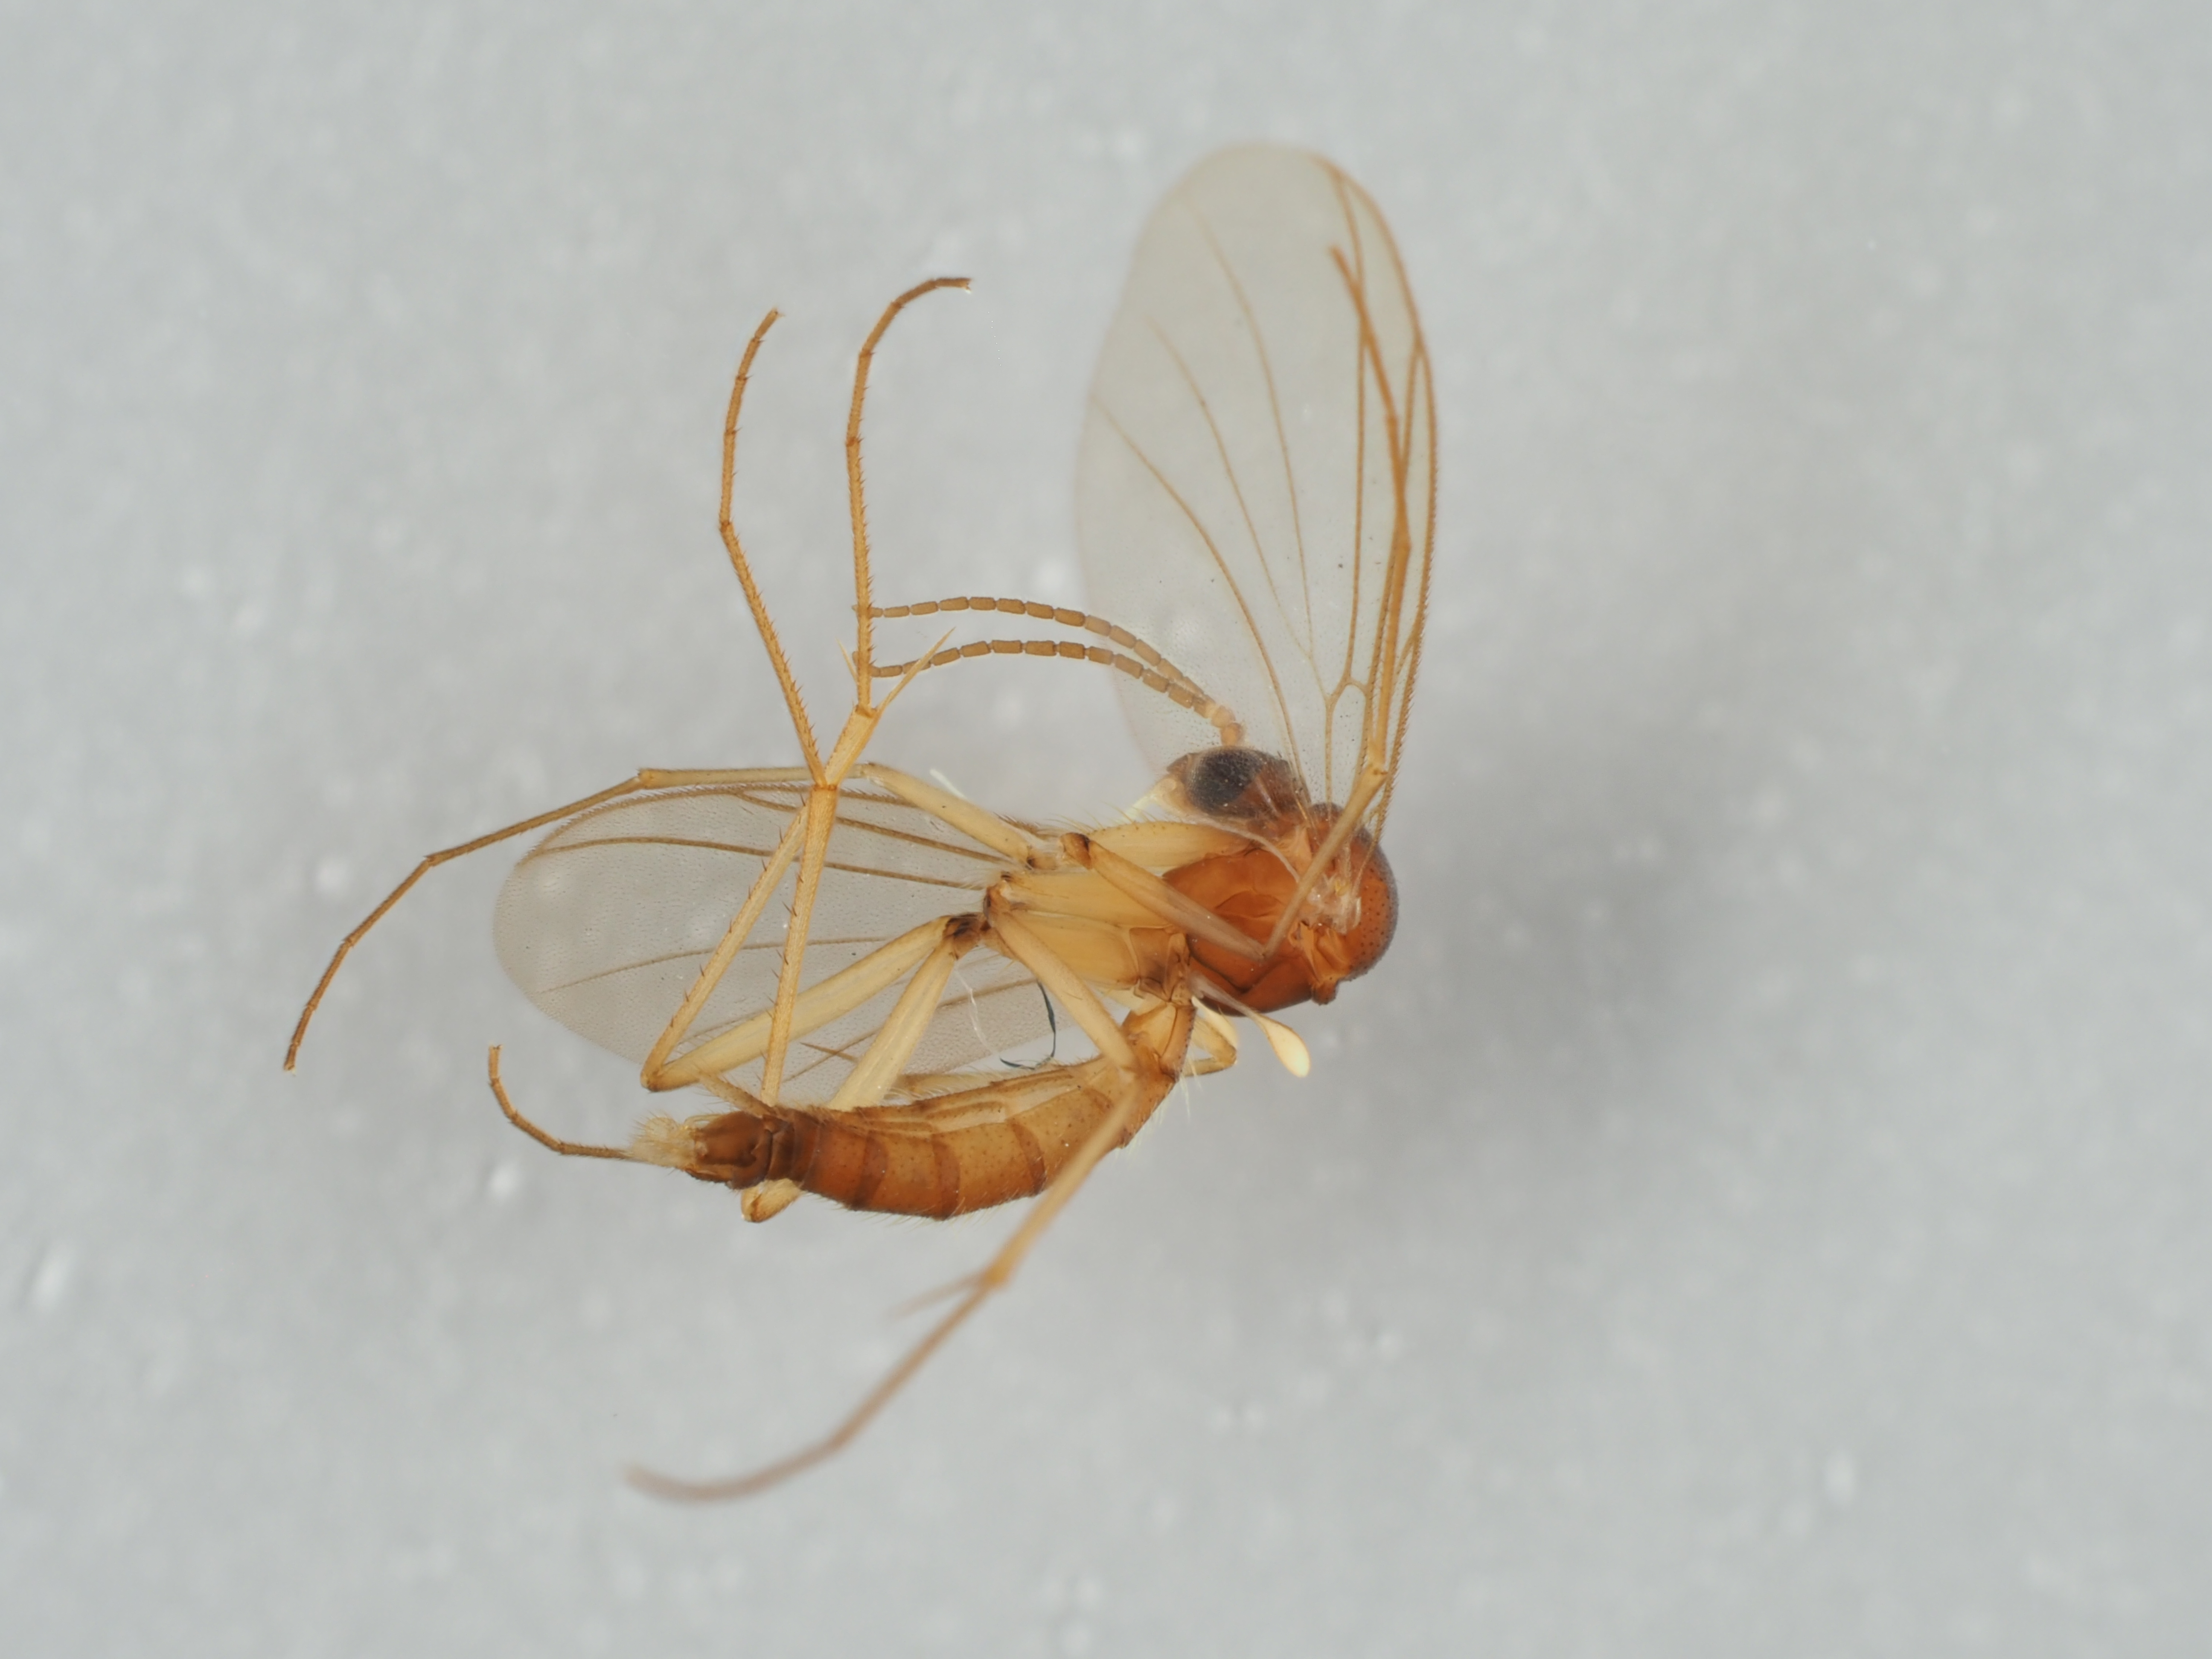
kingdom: Animalia
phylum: Arthropoda
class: Insecta
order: Diptera
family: Mycetophilidae
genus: Acnemia
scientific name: Acnemia falcata
